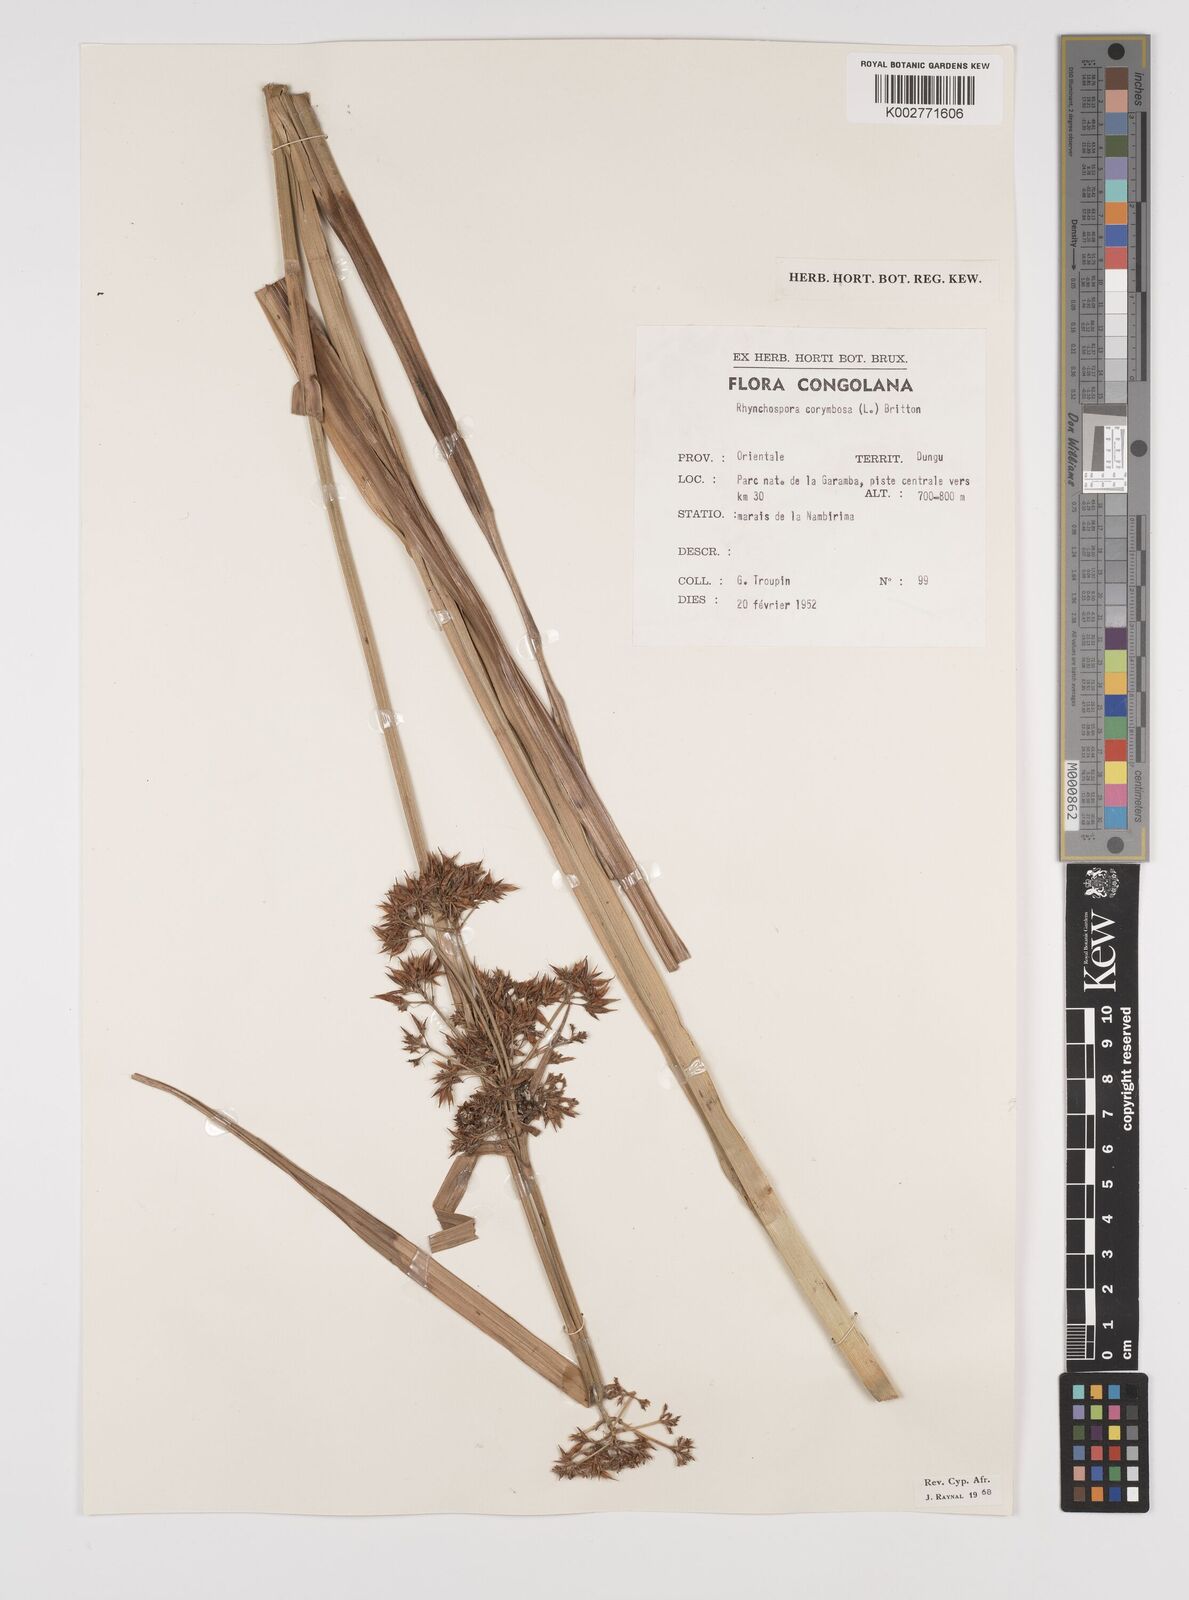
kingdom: Plantae
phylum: Tracheophyta
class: Liliopsida
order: Poales
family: Cyperaceae
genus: Rhynchospora
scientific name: Rhynchospora corymbosa
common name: Golden beak sedge
